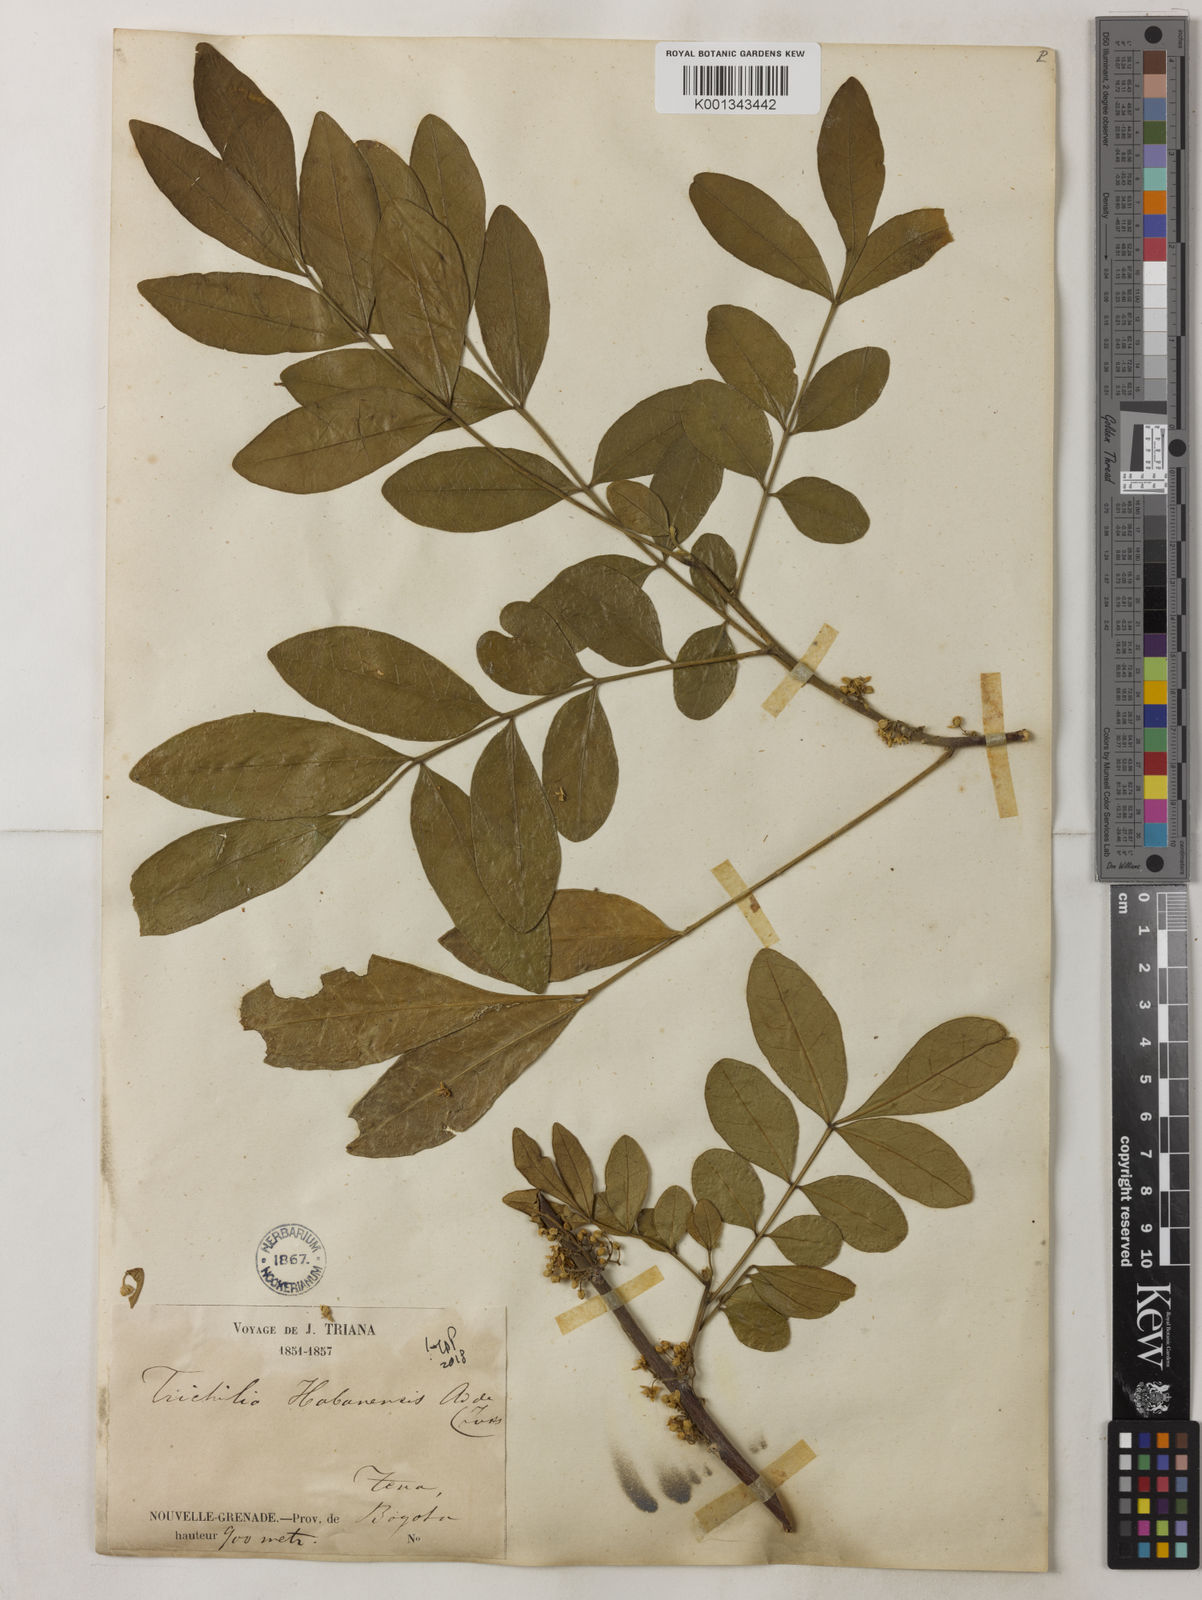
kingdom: Plantae
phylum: Tracheophyta
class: Magnoliopsida
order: Sapindales
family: Meliaceae
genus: Trichilia
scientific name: Trichilia havanensis
